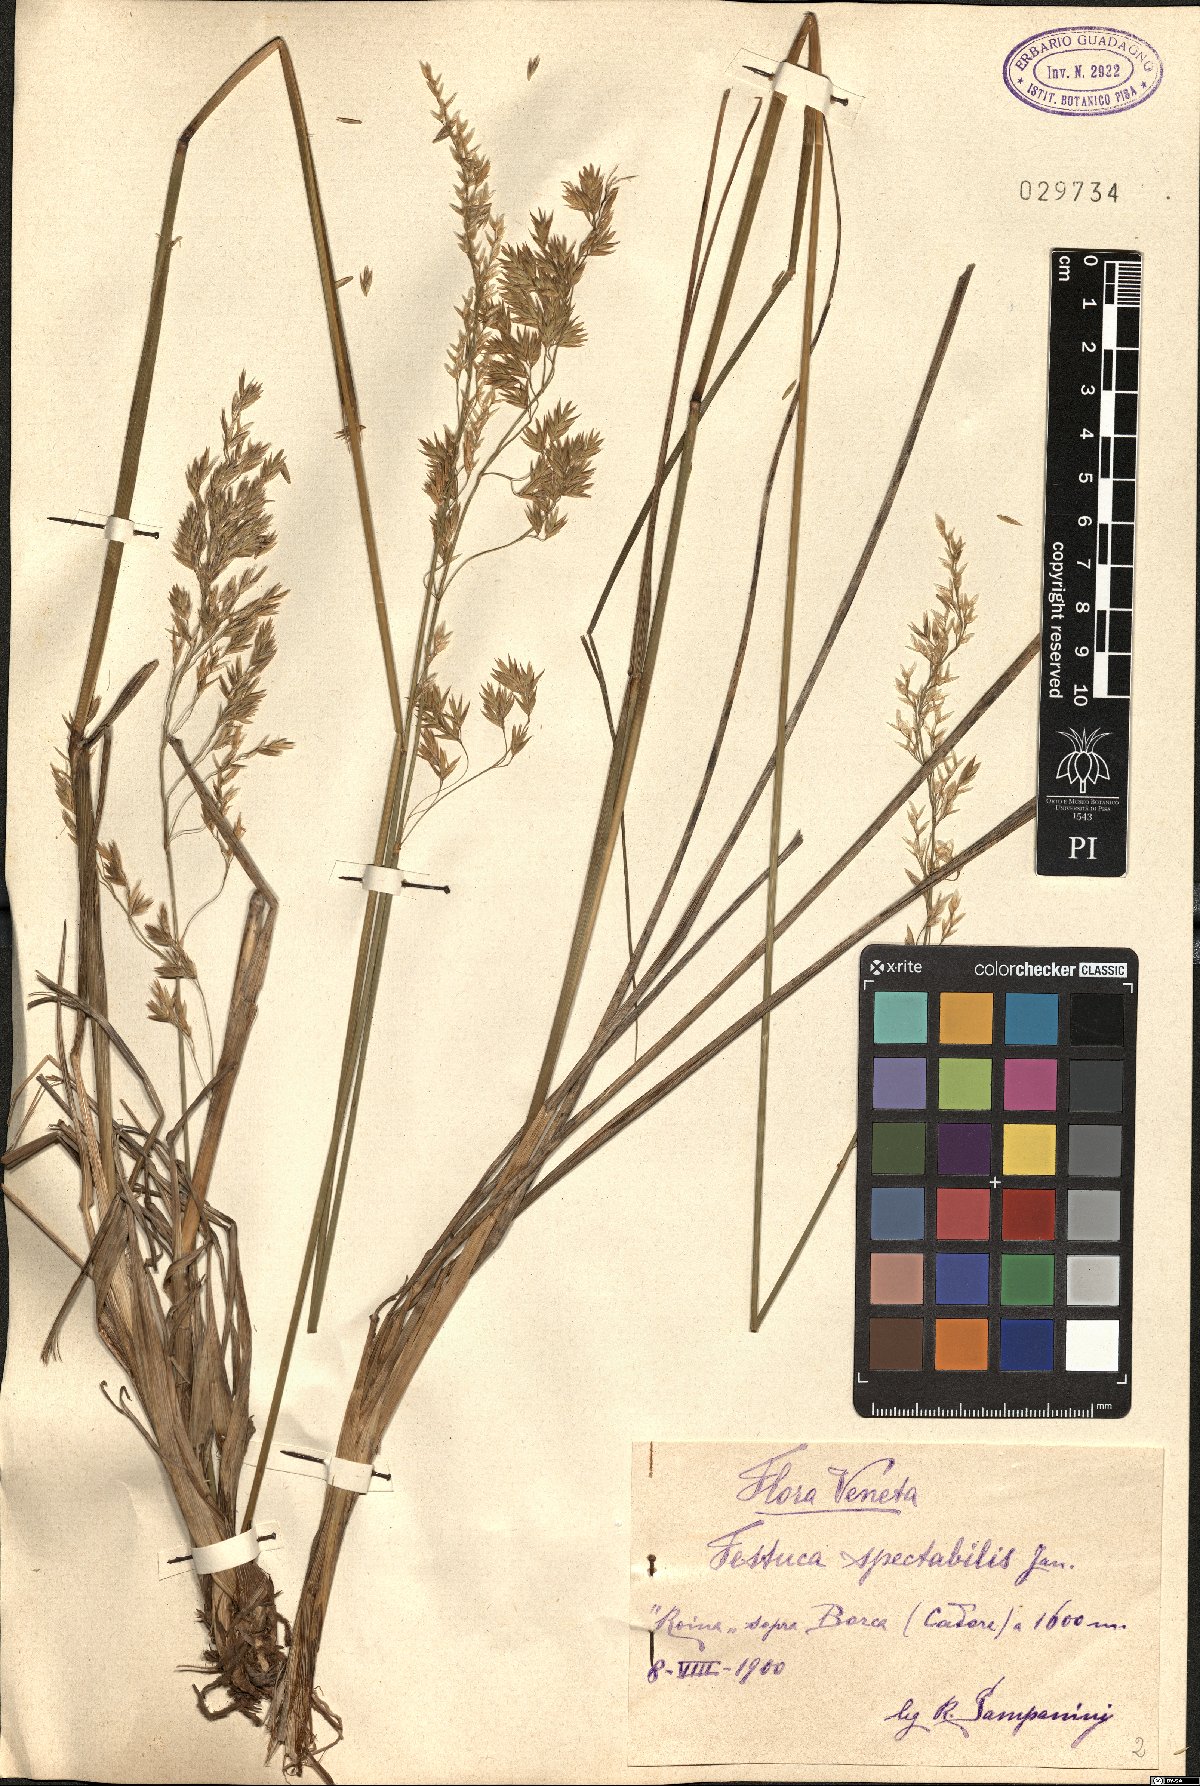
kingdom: Plantae
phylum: Tracheophyta
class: Liliopsida
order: Poales
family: Poaceae
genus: Festuca
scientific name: Festuca spectabilis
